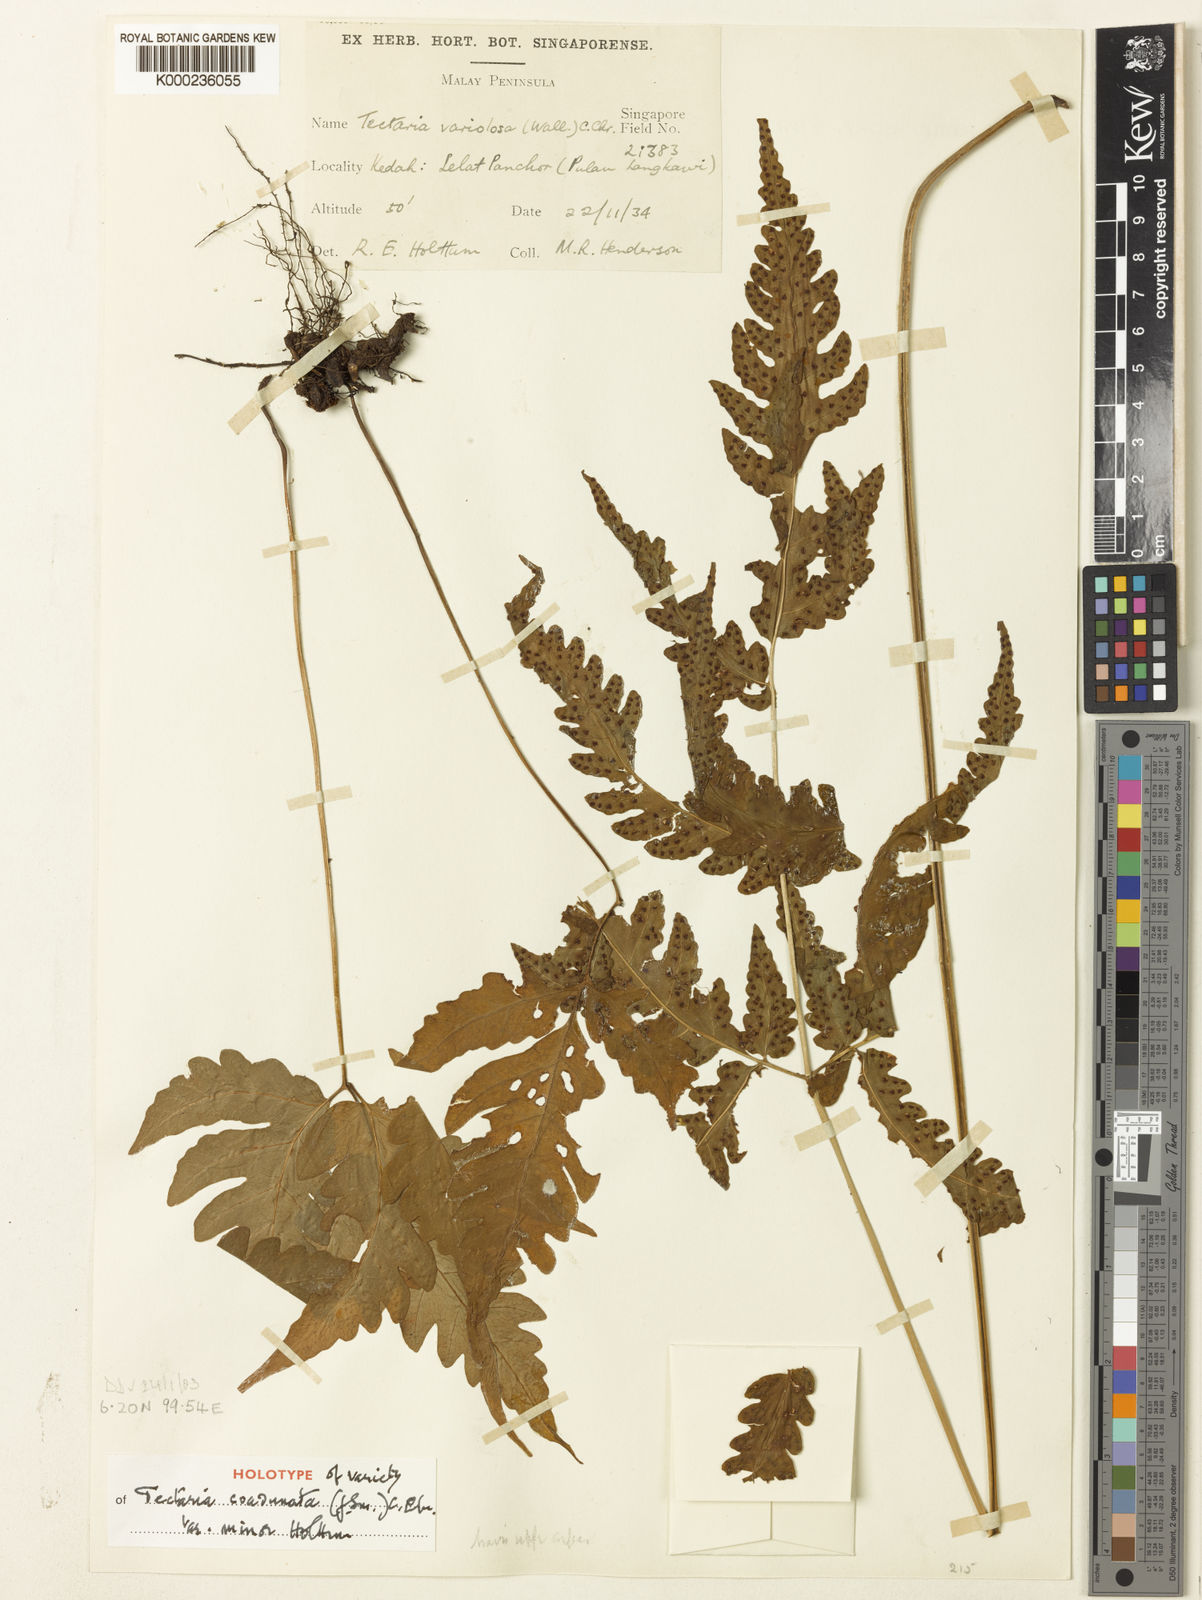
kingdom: Plantae
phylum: Tracheophyta
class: Polypodiopsida
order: Polypodiales
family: Tectariaceae
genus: Tectaria
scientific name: Tectaria coadunata
